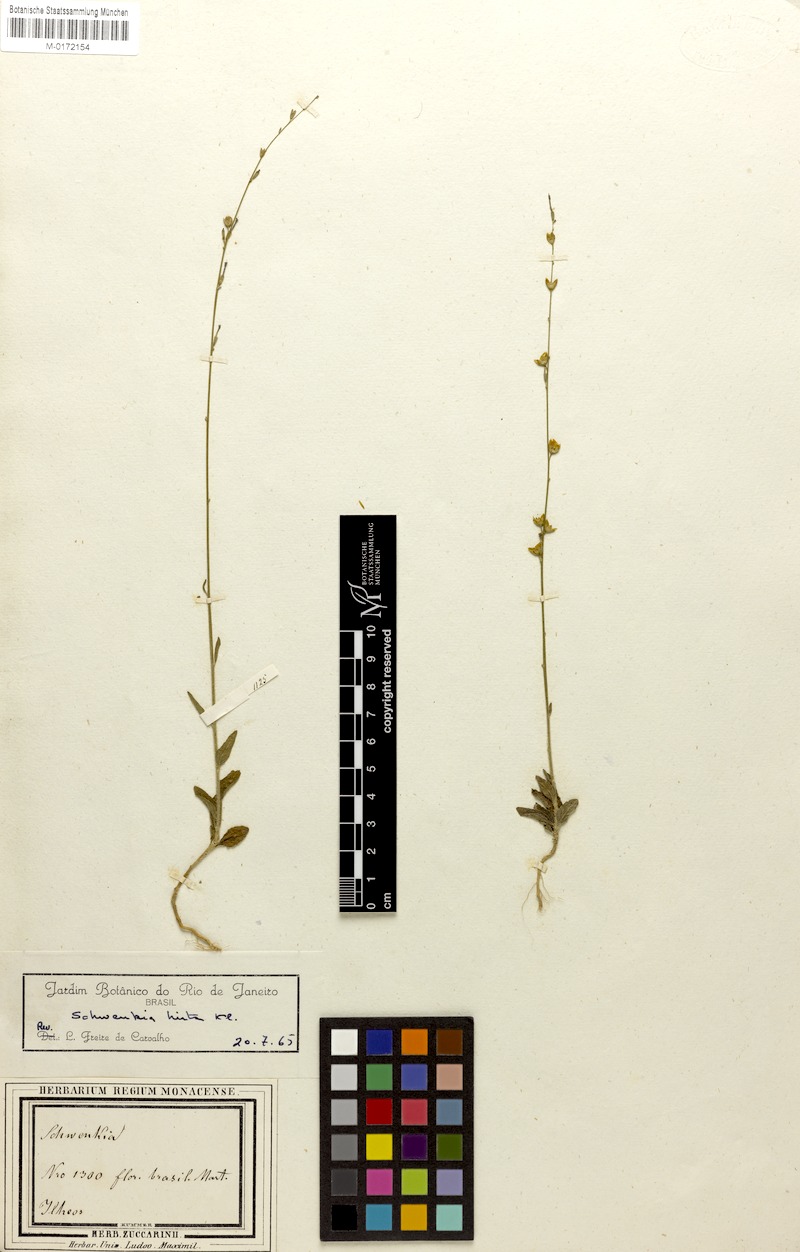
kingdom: Plantae
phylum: Tracheophyta
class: Magnoliopsida
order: Solanales
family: Solanaceae
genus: Schwenckia
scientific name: Schwenckia americana
